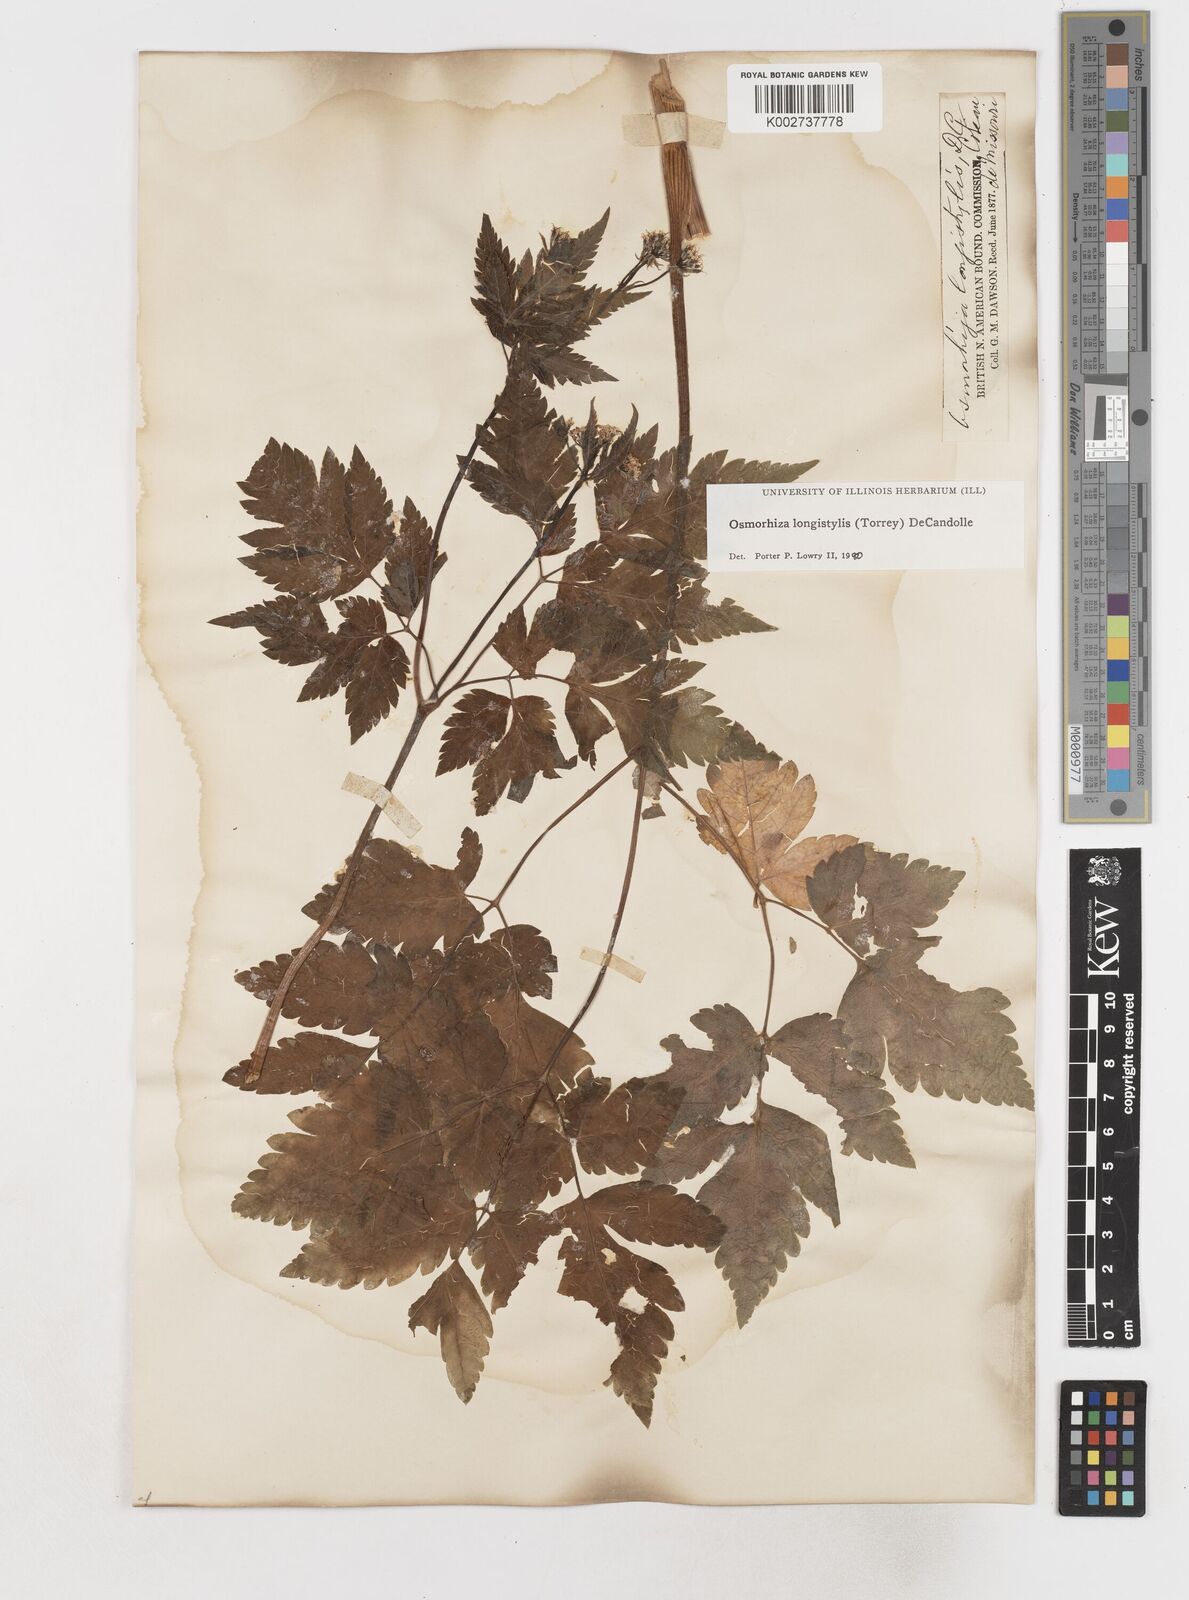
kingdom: Plantae
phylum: Tracheophyta
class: Magnoliopsida
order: Apiales
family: Apiaceae
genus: Osmorhiza
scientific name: Osmorhiza longistylis
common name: Smooth sweet cicely
